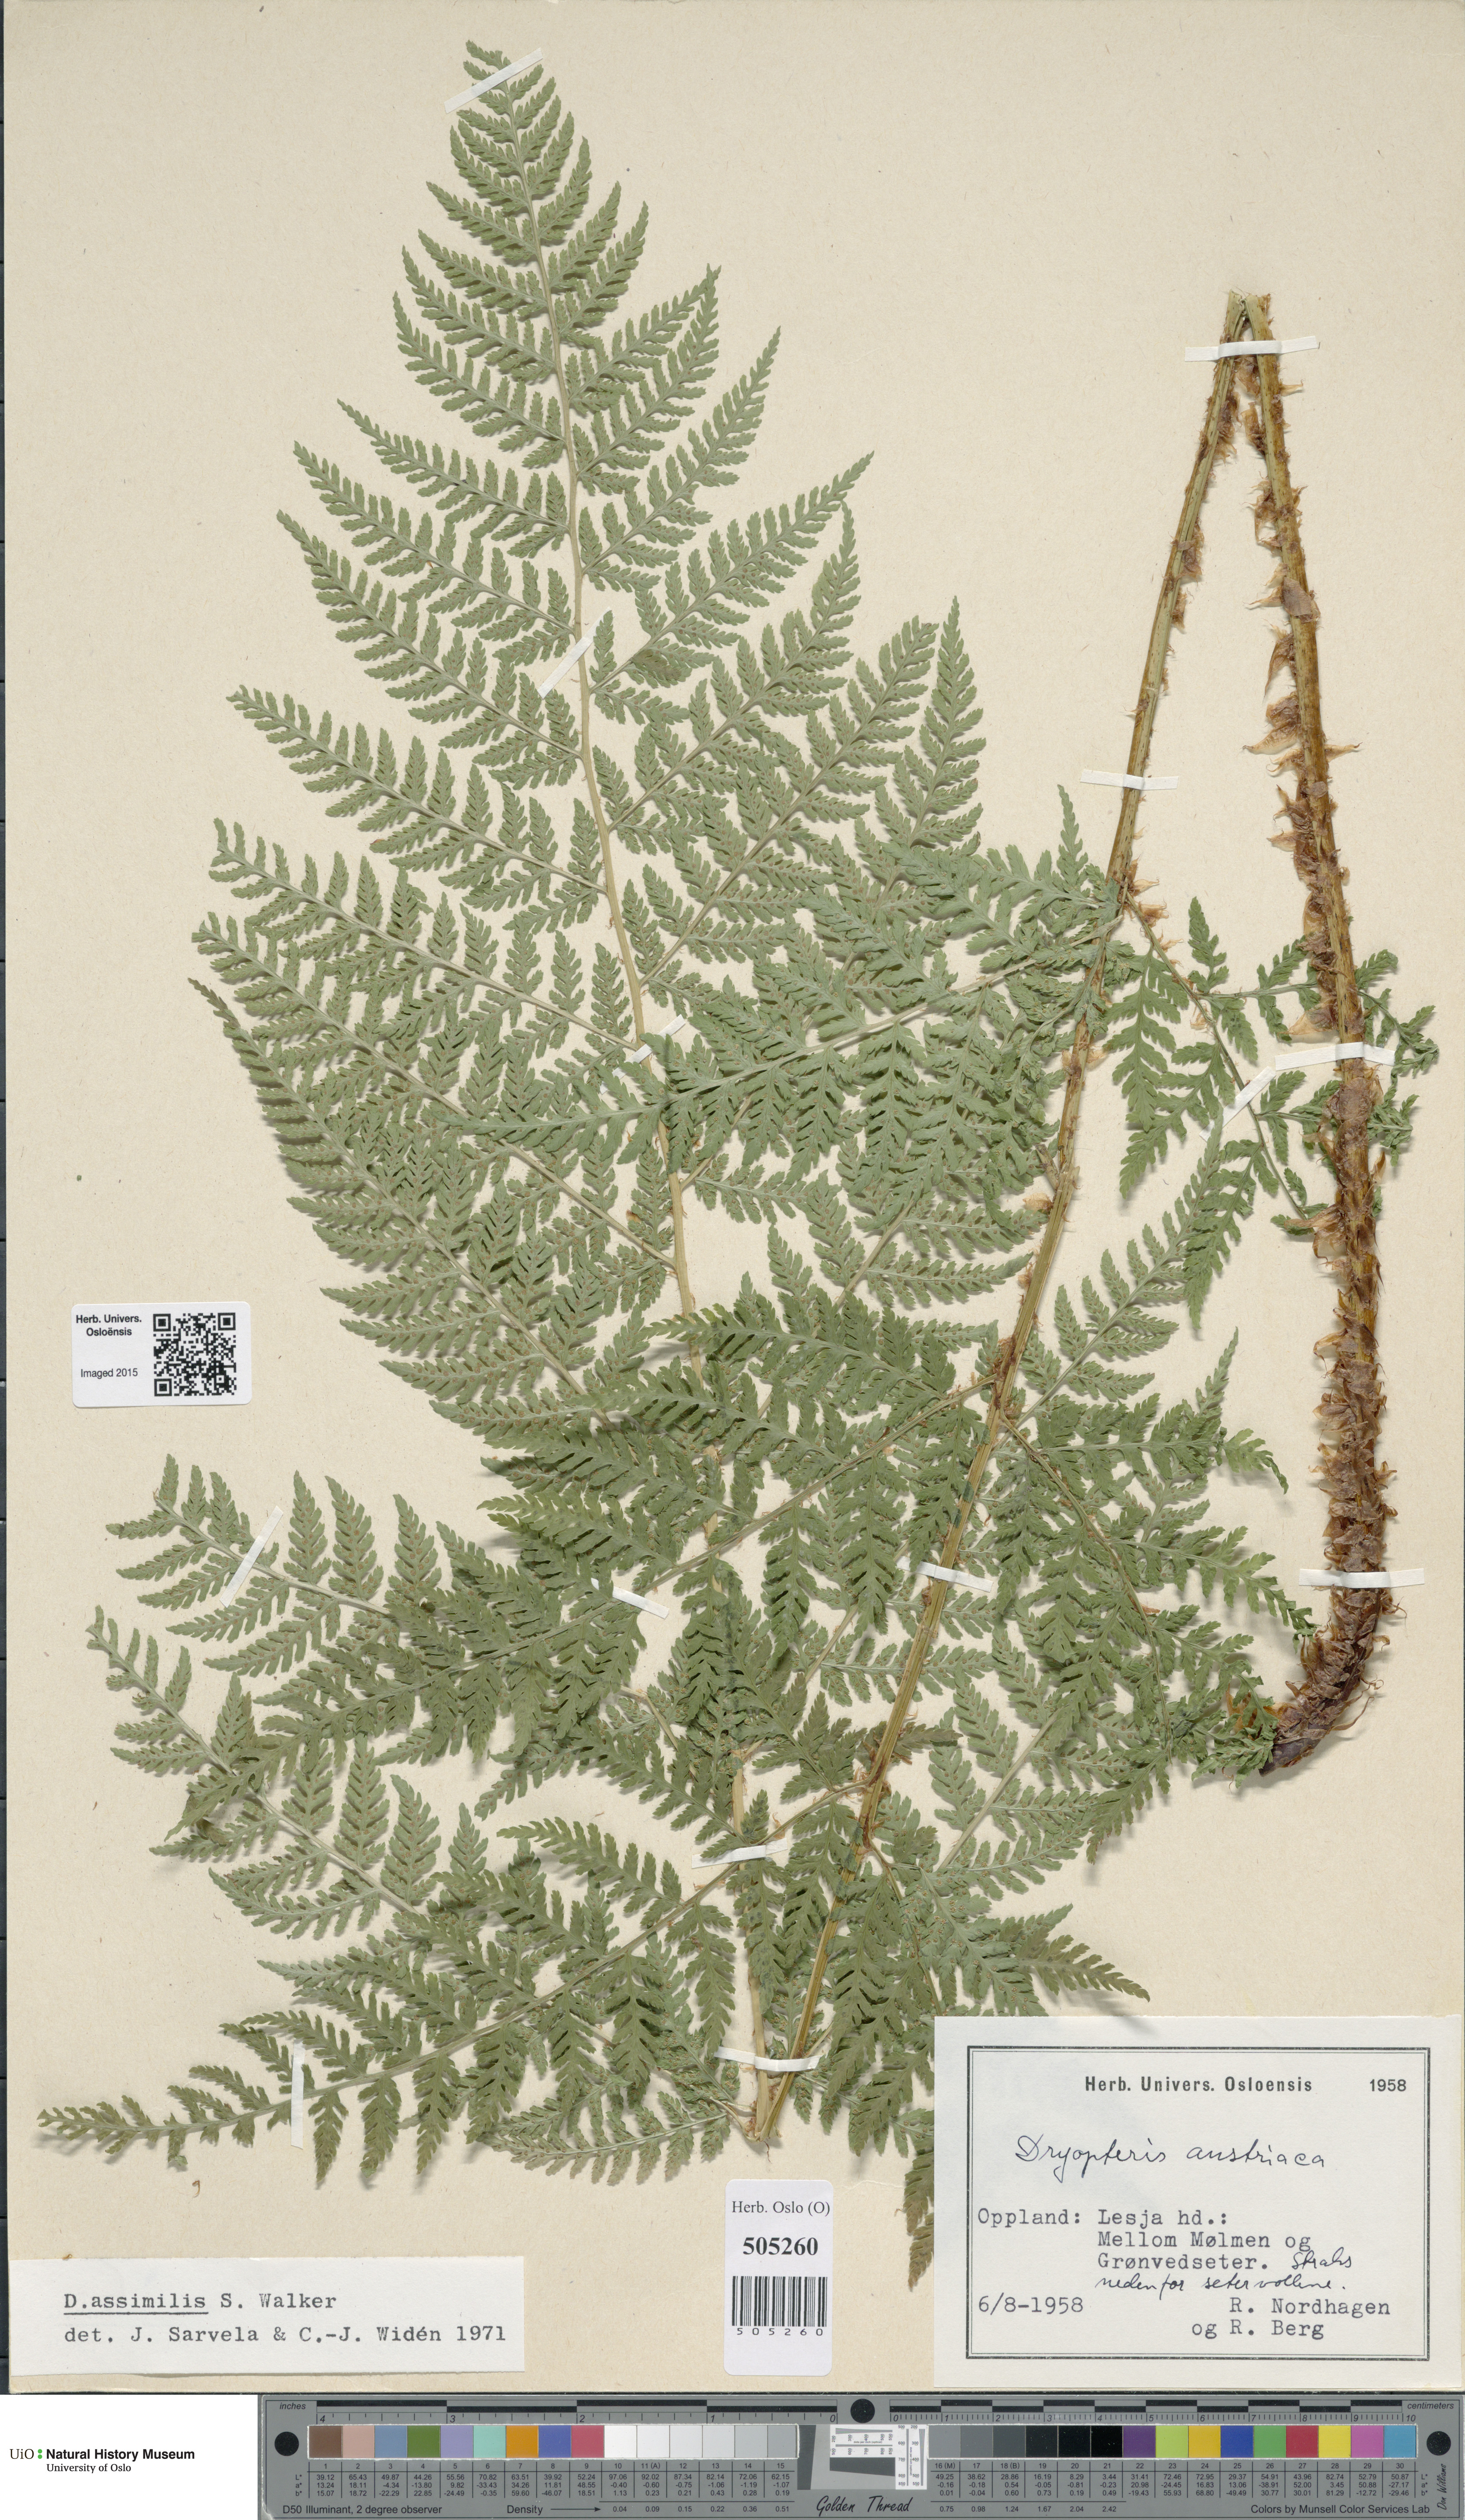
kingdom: Plantae
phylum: Tracheophyta
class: Polypodiopsida
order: Polypodiales
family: Dryopteridaceae
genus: Dryopteris
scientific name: Dryopteris expansa
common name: Northern buckler fern
